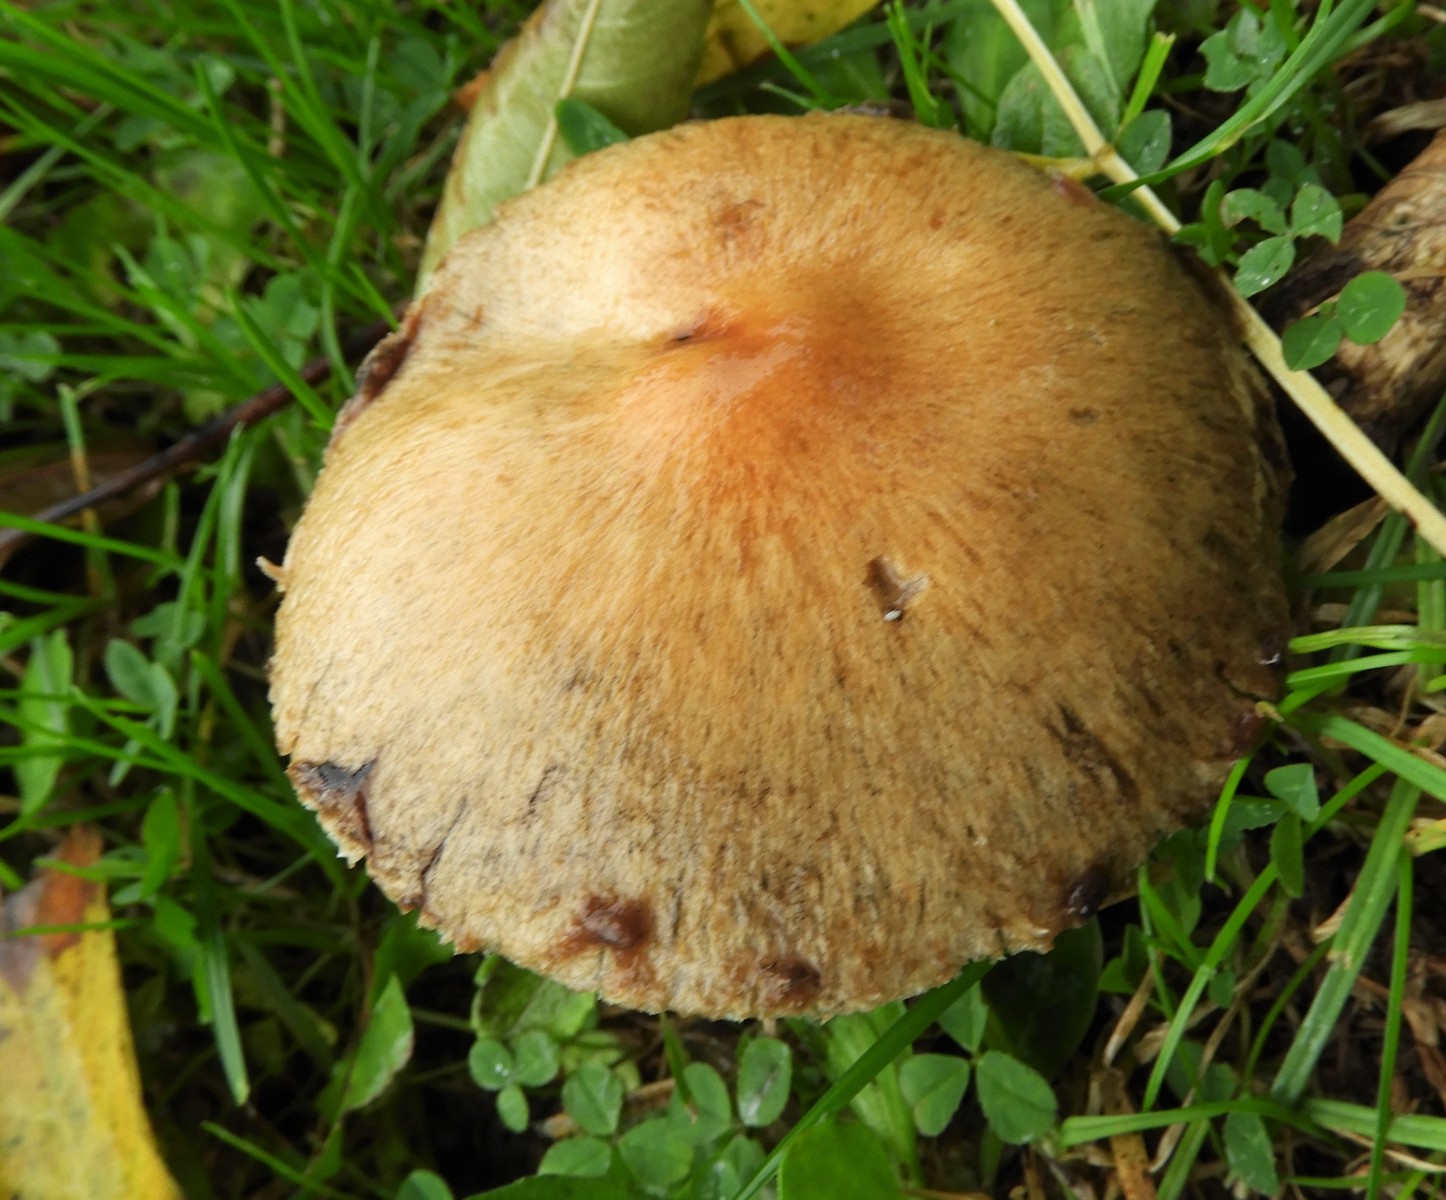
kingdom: Fungi
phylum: Basidiomycota
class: Agaricomycetes
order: Agaricales
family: Psathyrellaceae
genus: Lacrymaria
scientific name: Lacrymaria lacrymabunda
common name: grædende mørkhat
